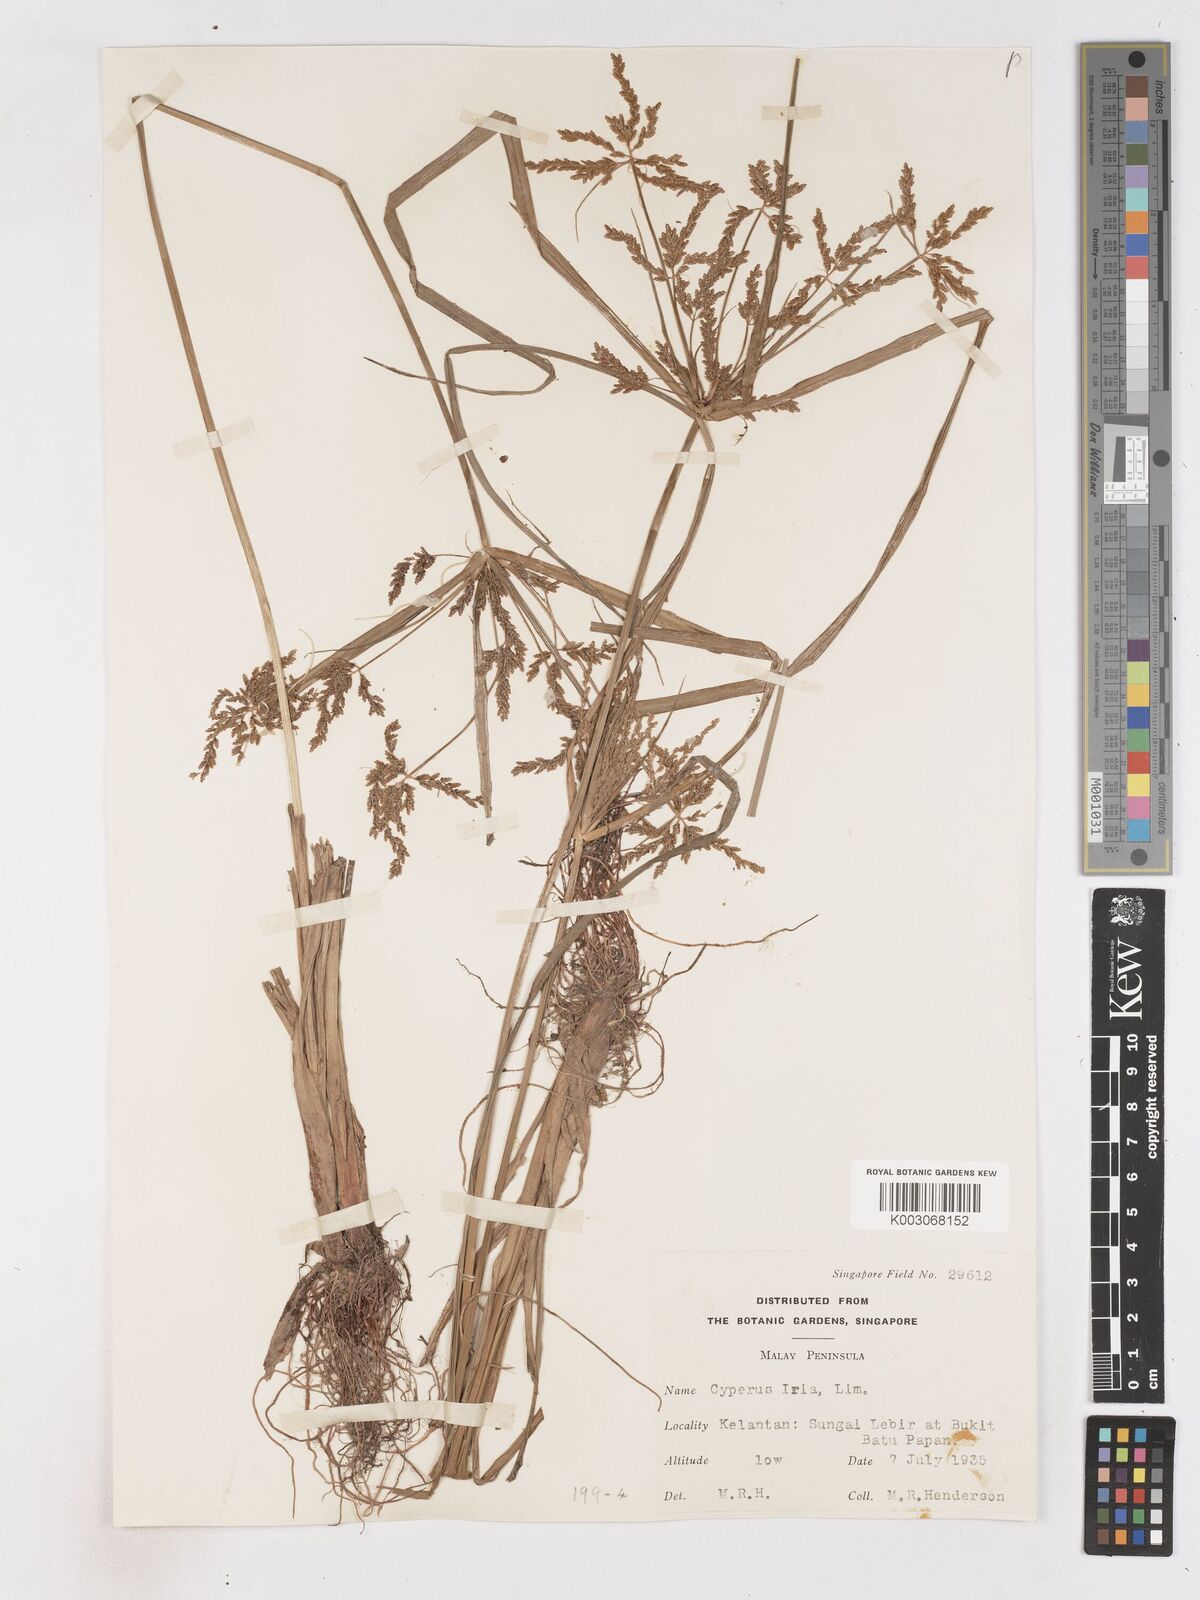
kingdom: Plantae
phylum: Tracheophyta
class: Liliopsida
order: Poales
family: Cyperaceae
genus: Cyperus
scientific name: Cyperus iria
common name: Ricefield flatsedge
